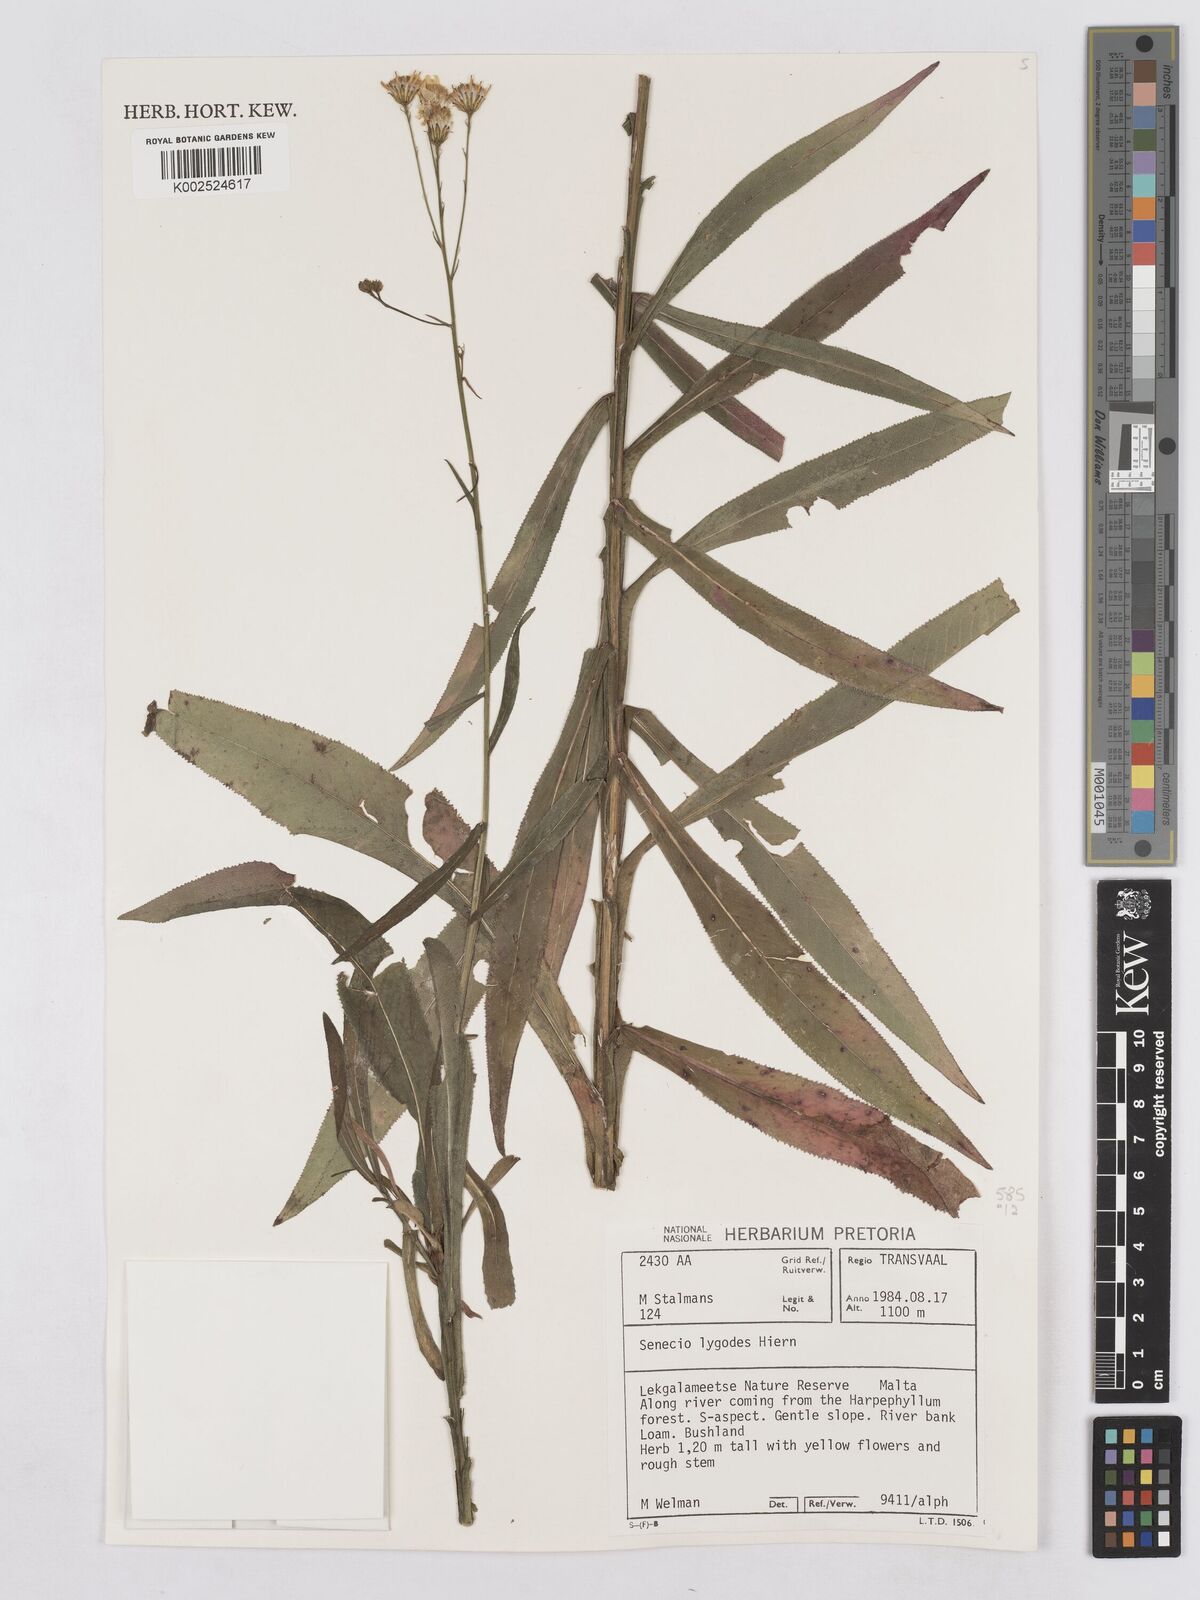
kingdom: Plantae
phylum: Tracheophyta
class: Magnoliopsida
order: Asterales
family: Asteraceae
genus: Senecio
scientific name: Senecio inornatus
